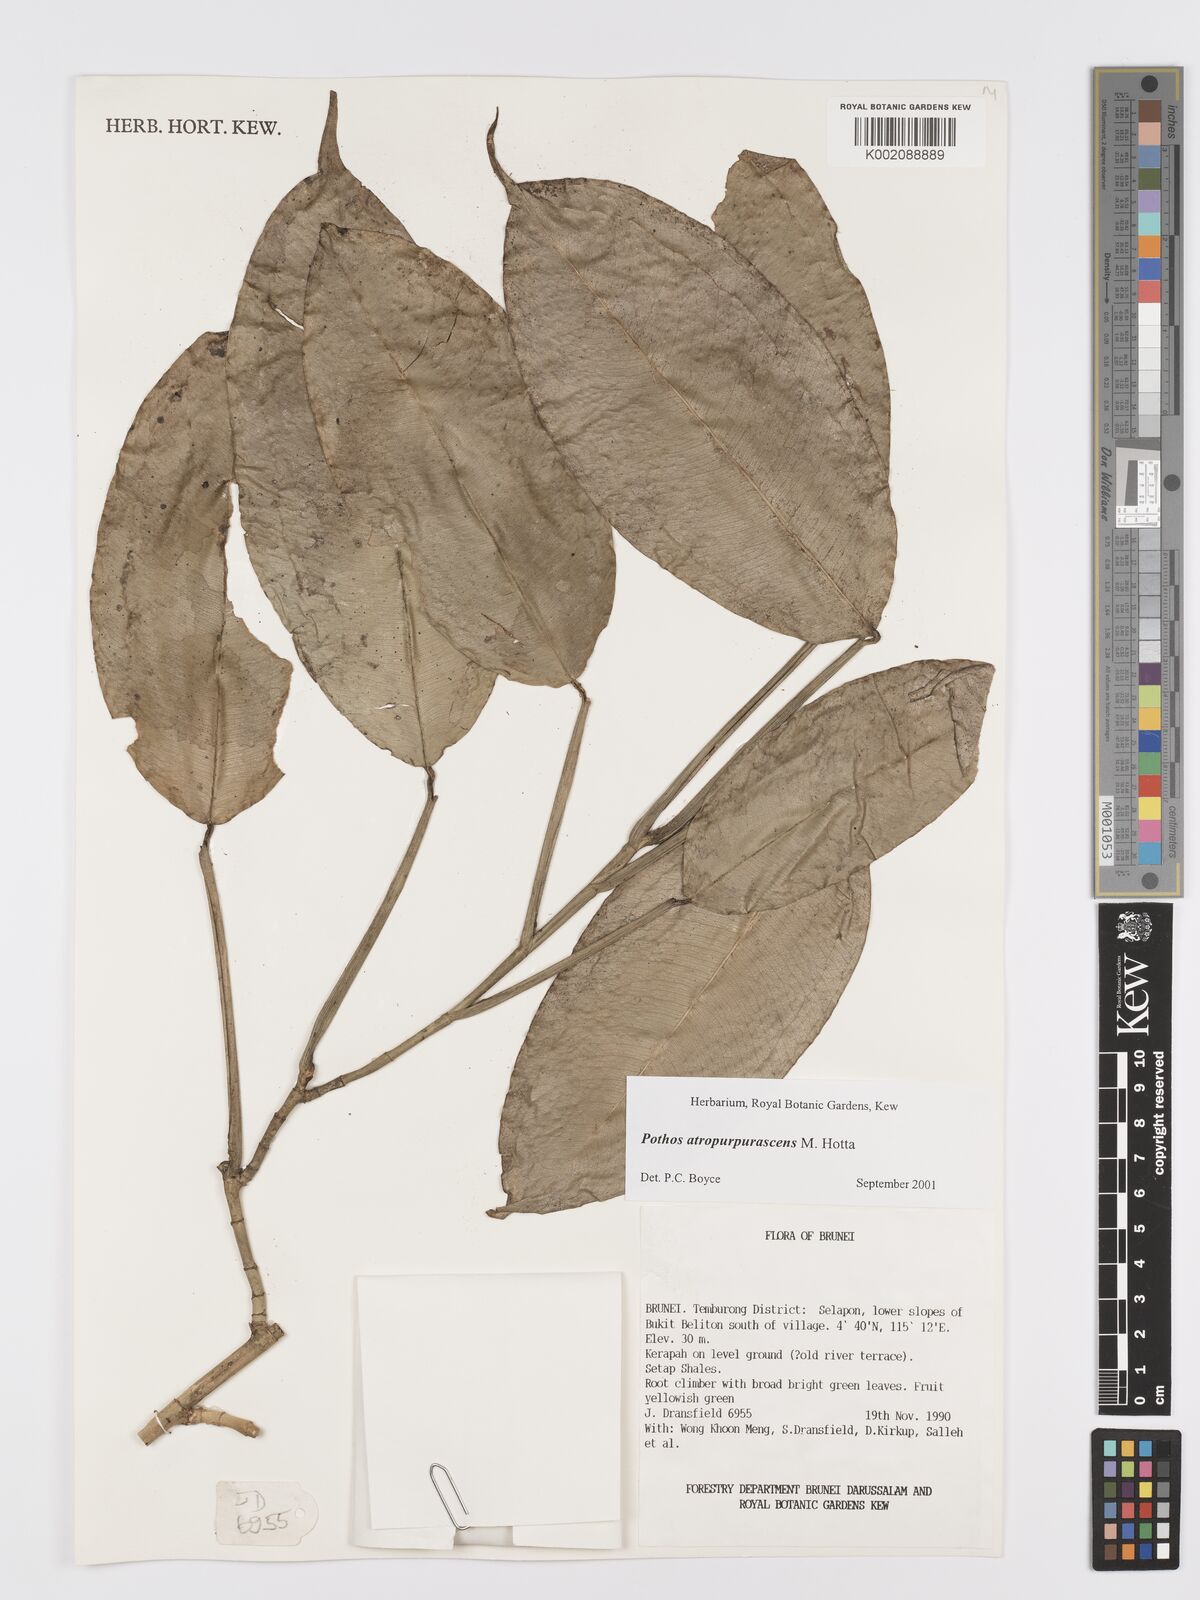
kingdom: Plantae
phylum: Tracheophyta
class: Liliopsida
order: Alismatales
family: Araceae
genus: Pothos
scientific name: Pothos atropurpurascens
